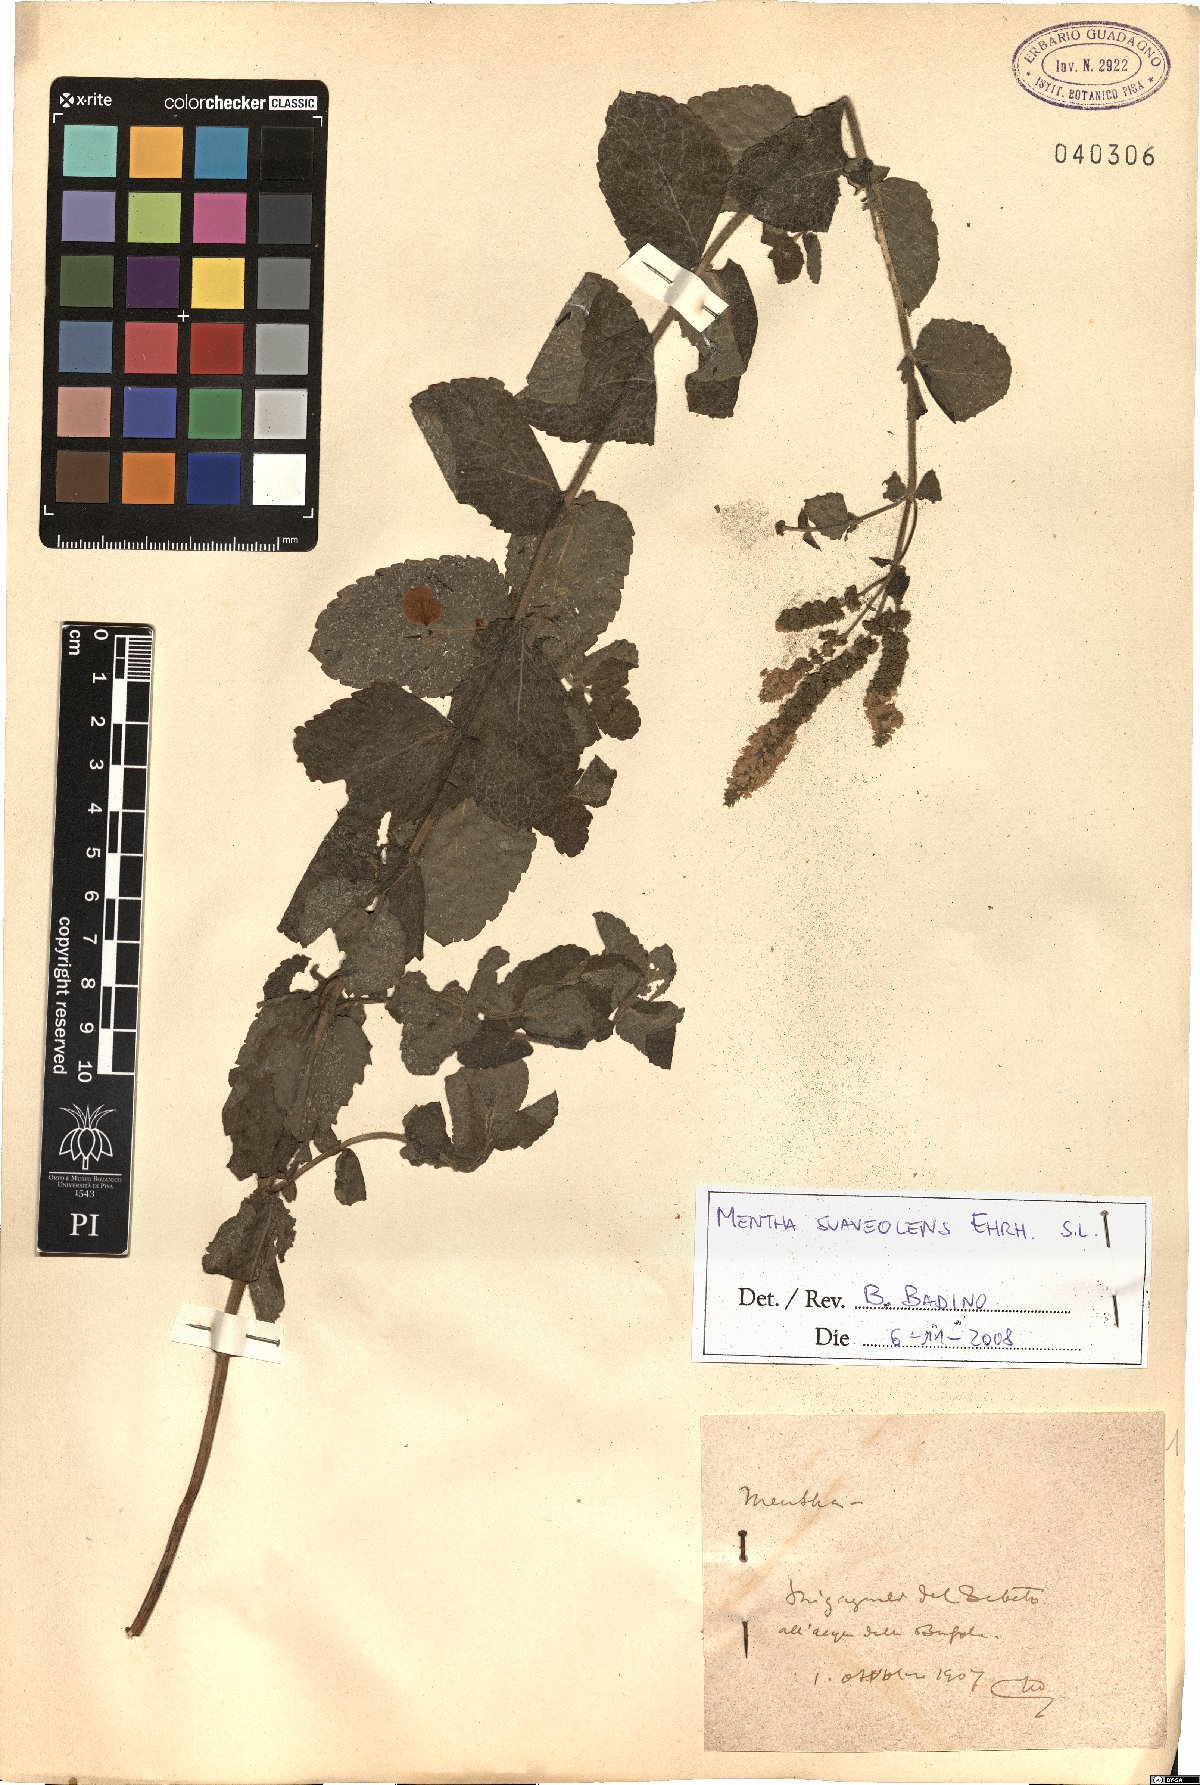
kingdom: Plantae
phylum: Tracheophyta
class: Magnoliopsida
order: Lamiales
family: Lamiaceae
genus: Mentha
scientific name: Mentha suaveolens
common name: Apple mint
